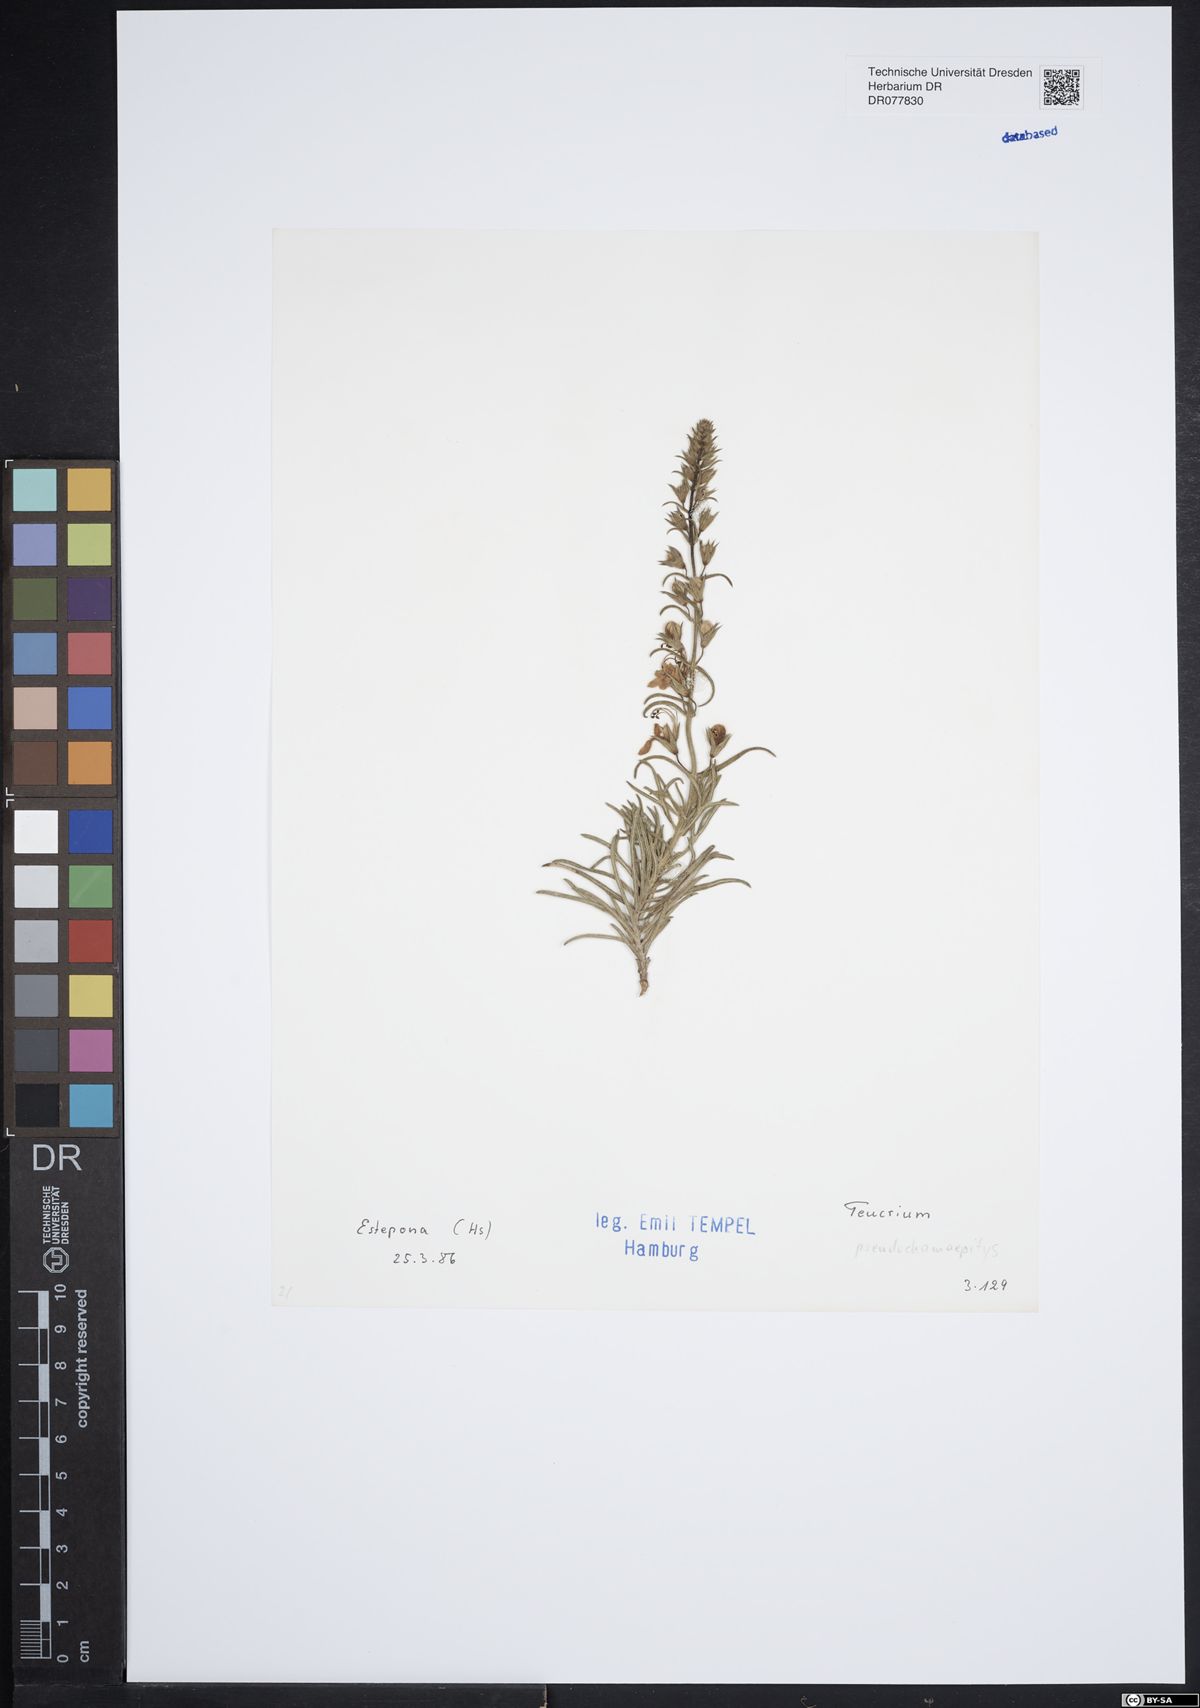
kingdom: Plantae
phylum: Tracheophyta
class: Magnoliopsida
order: Lamiales
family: Lamiaceae
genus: Teucrium
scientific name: Teucrium pseudochamaepitys
